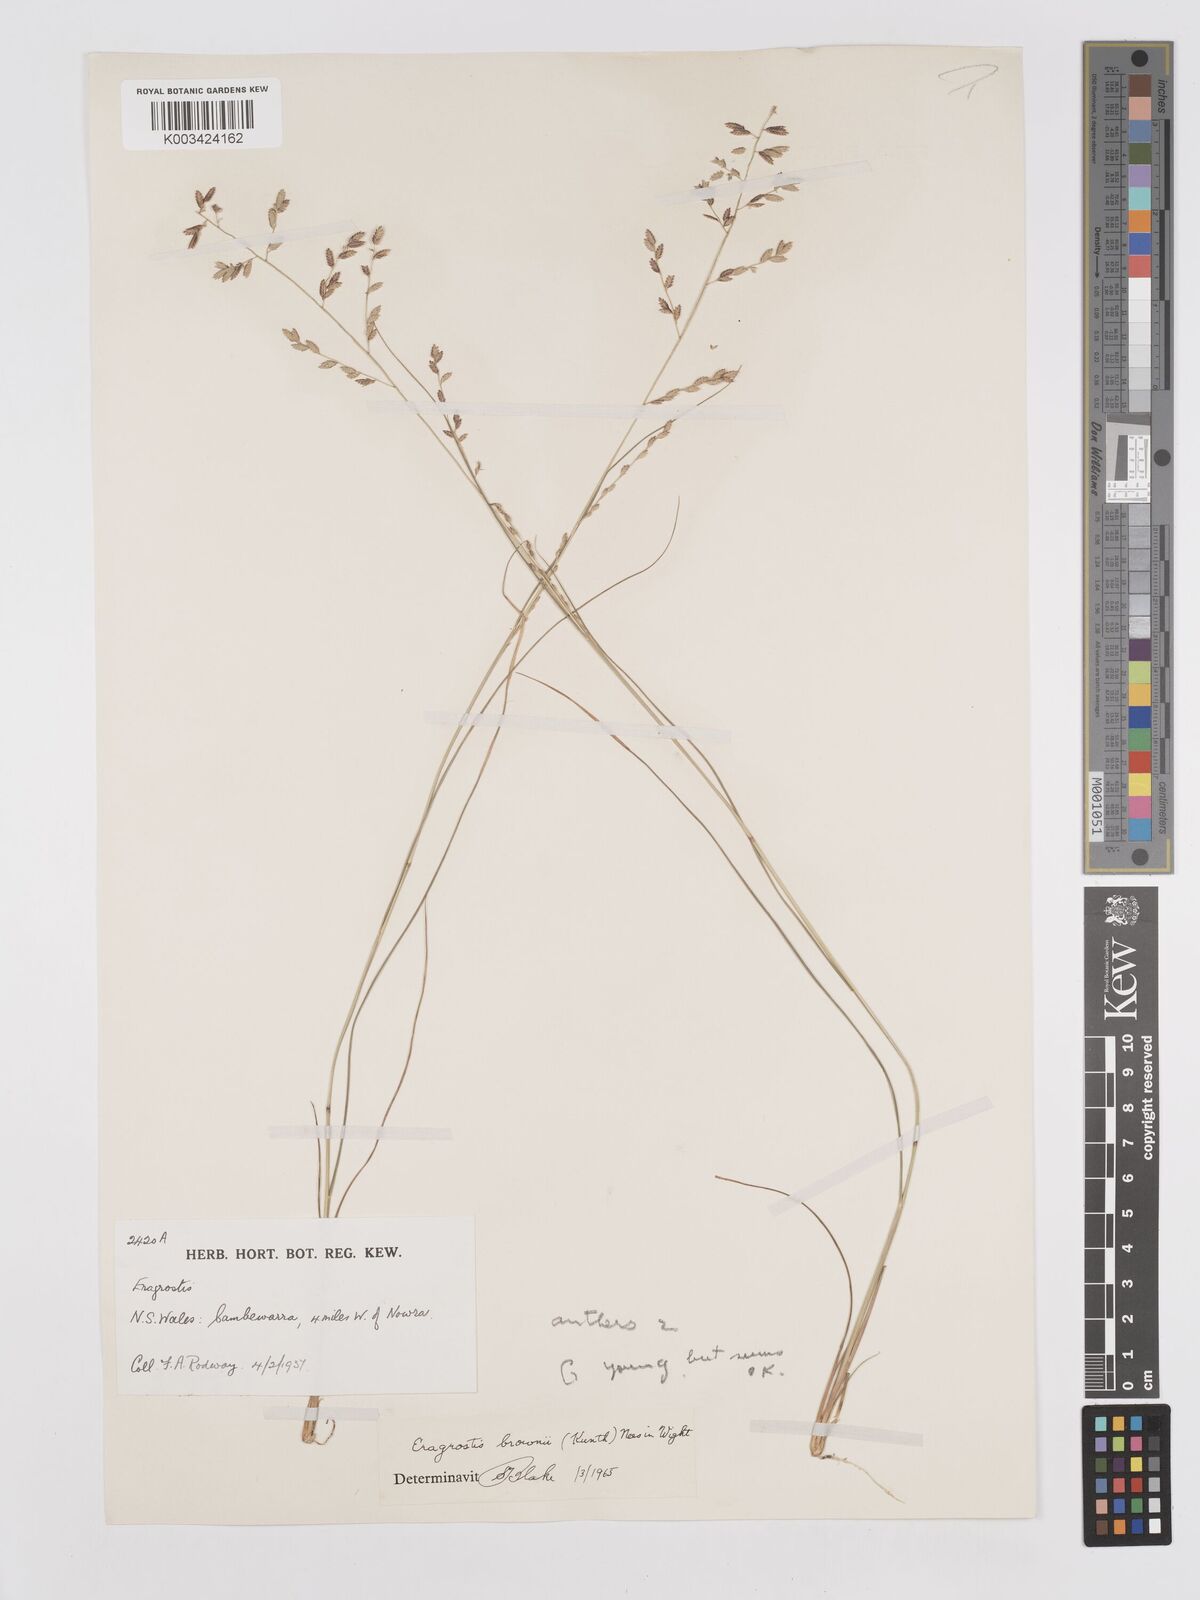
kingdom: Plantae
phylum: Tracheophyta
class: Liliopsida
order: Poales
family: Poaceae
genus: Eragrostis
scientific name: Eragrostis brownii
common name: Lovegrass
